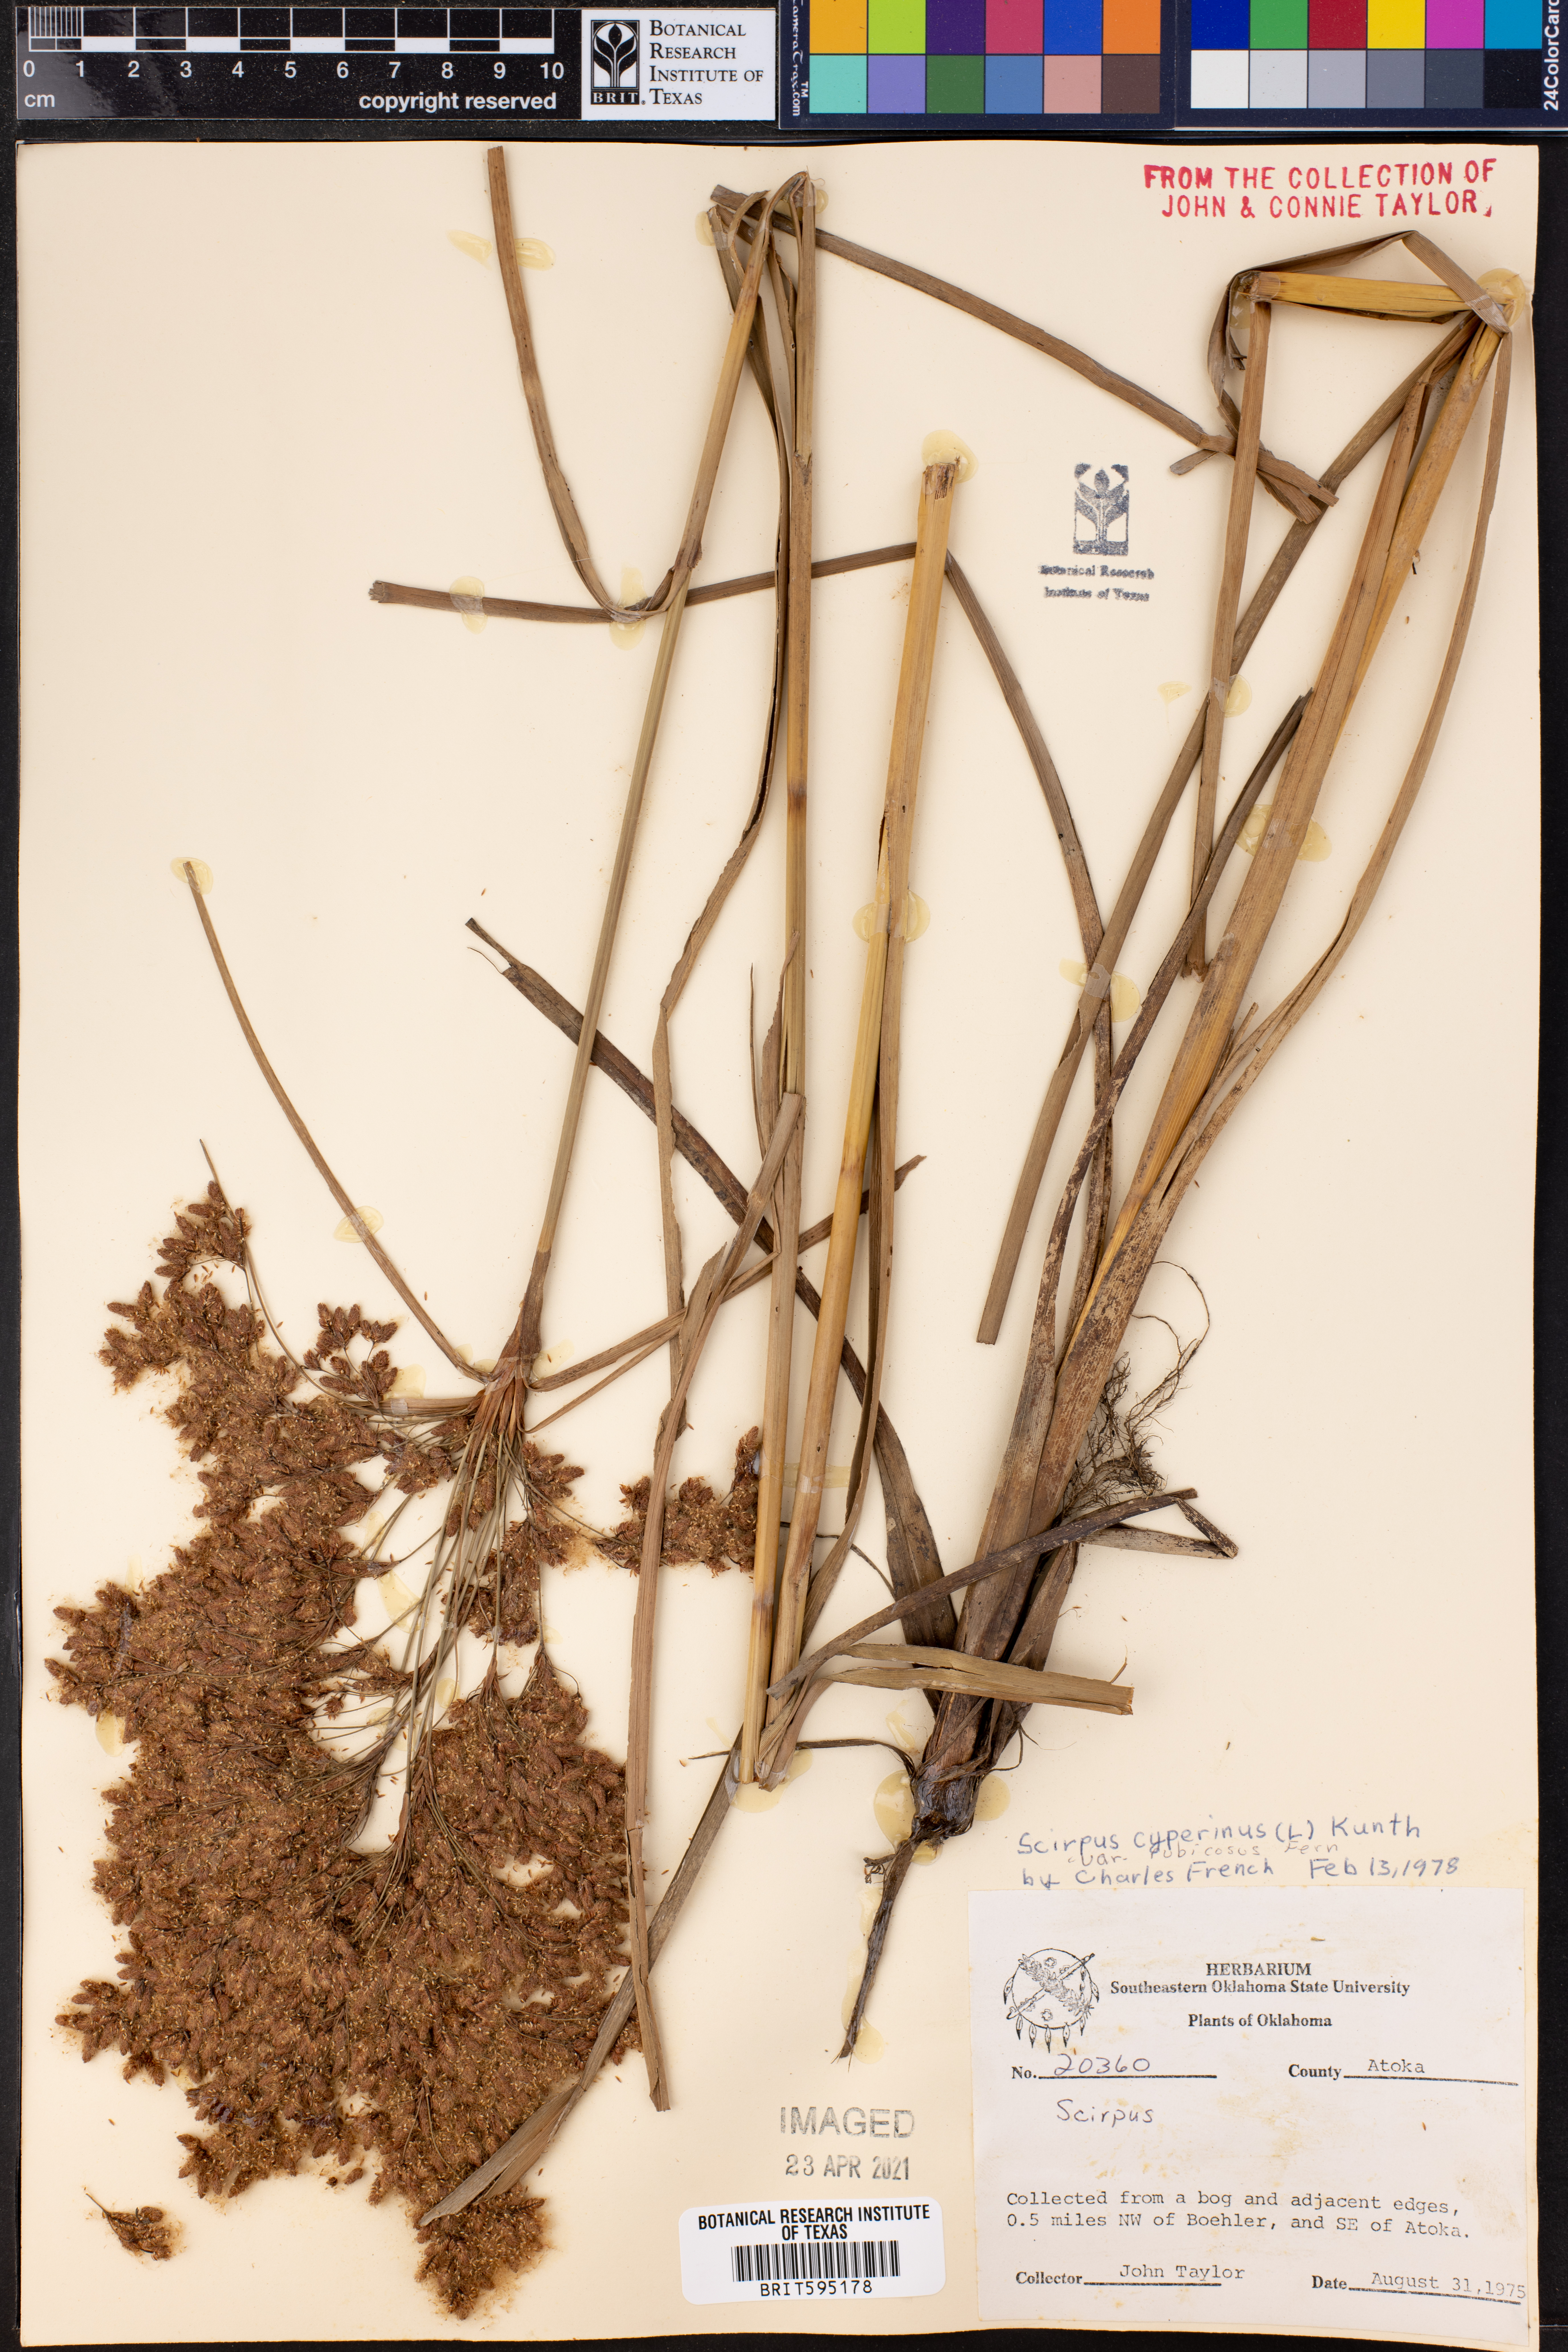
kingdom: Plantae
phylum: Tracheophyta
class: Liliopsida
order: Poales
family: Cyperaceae
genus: Scirpus
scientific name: Scirpus cyperinus
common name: Black-sheathed bulrush
